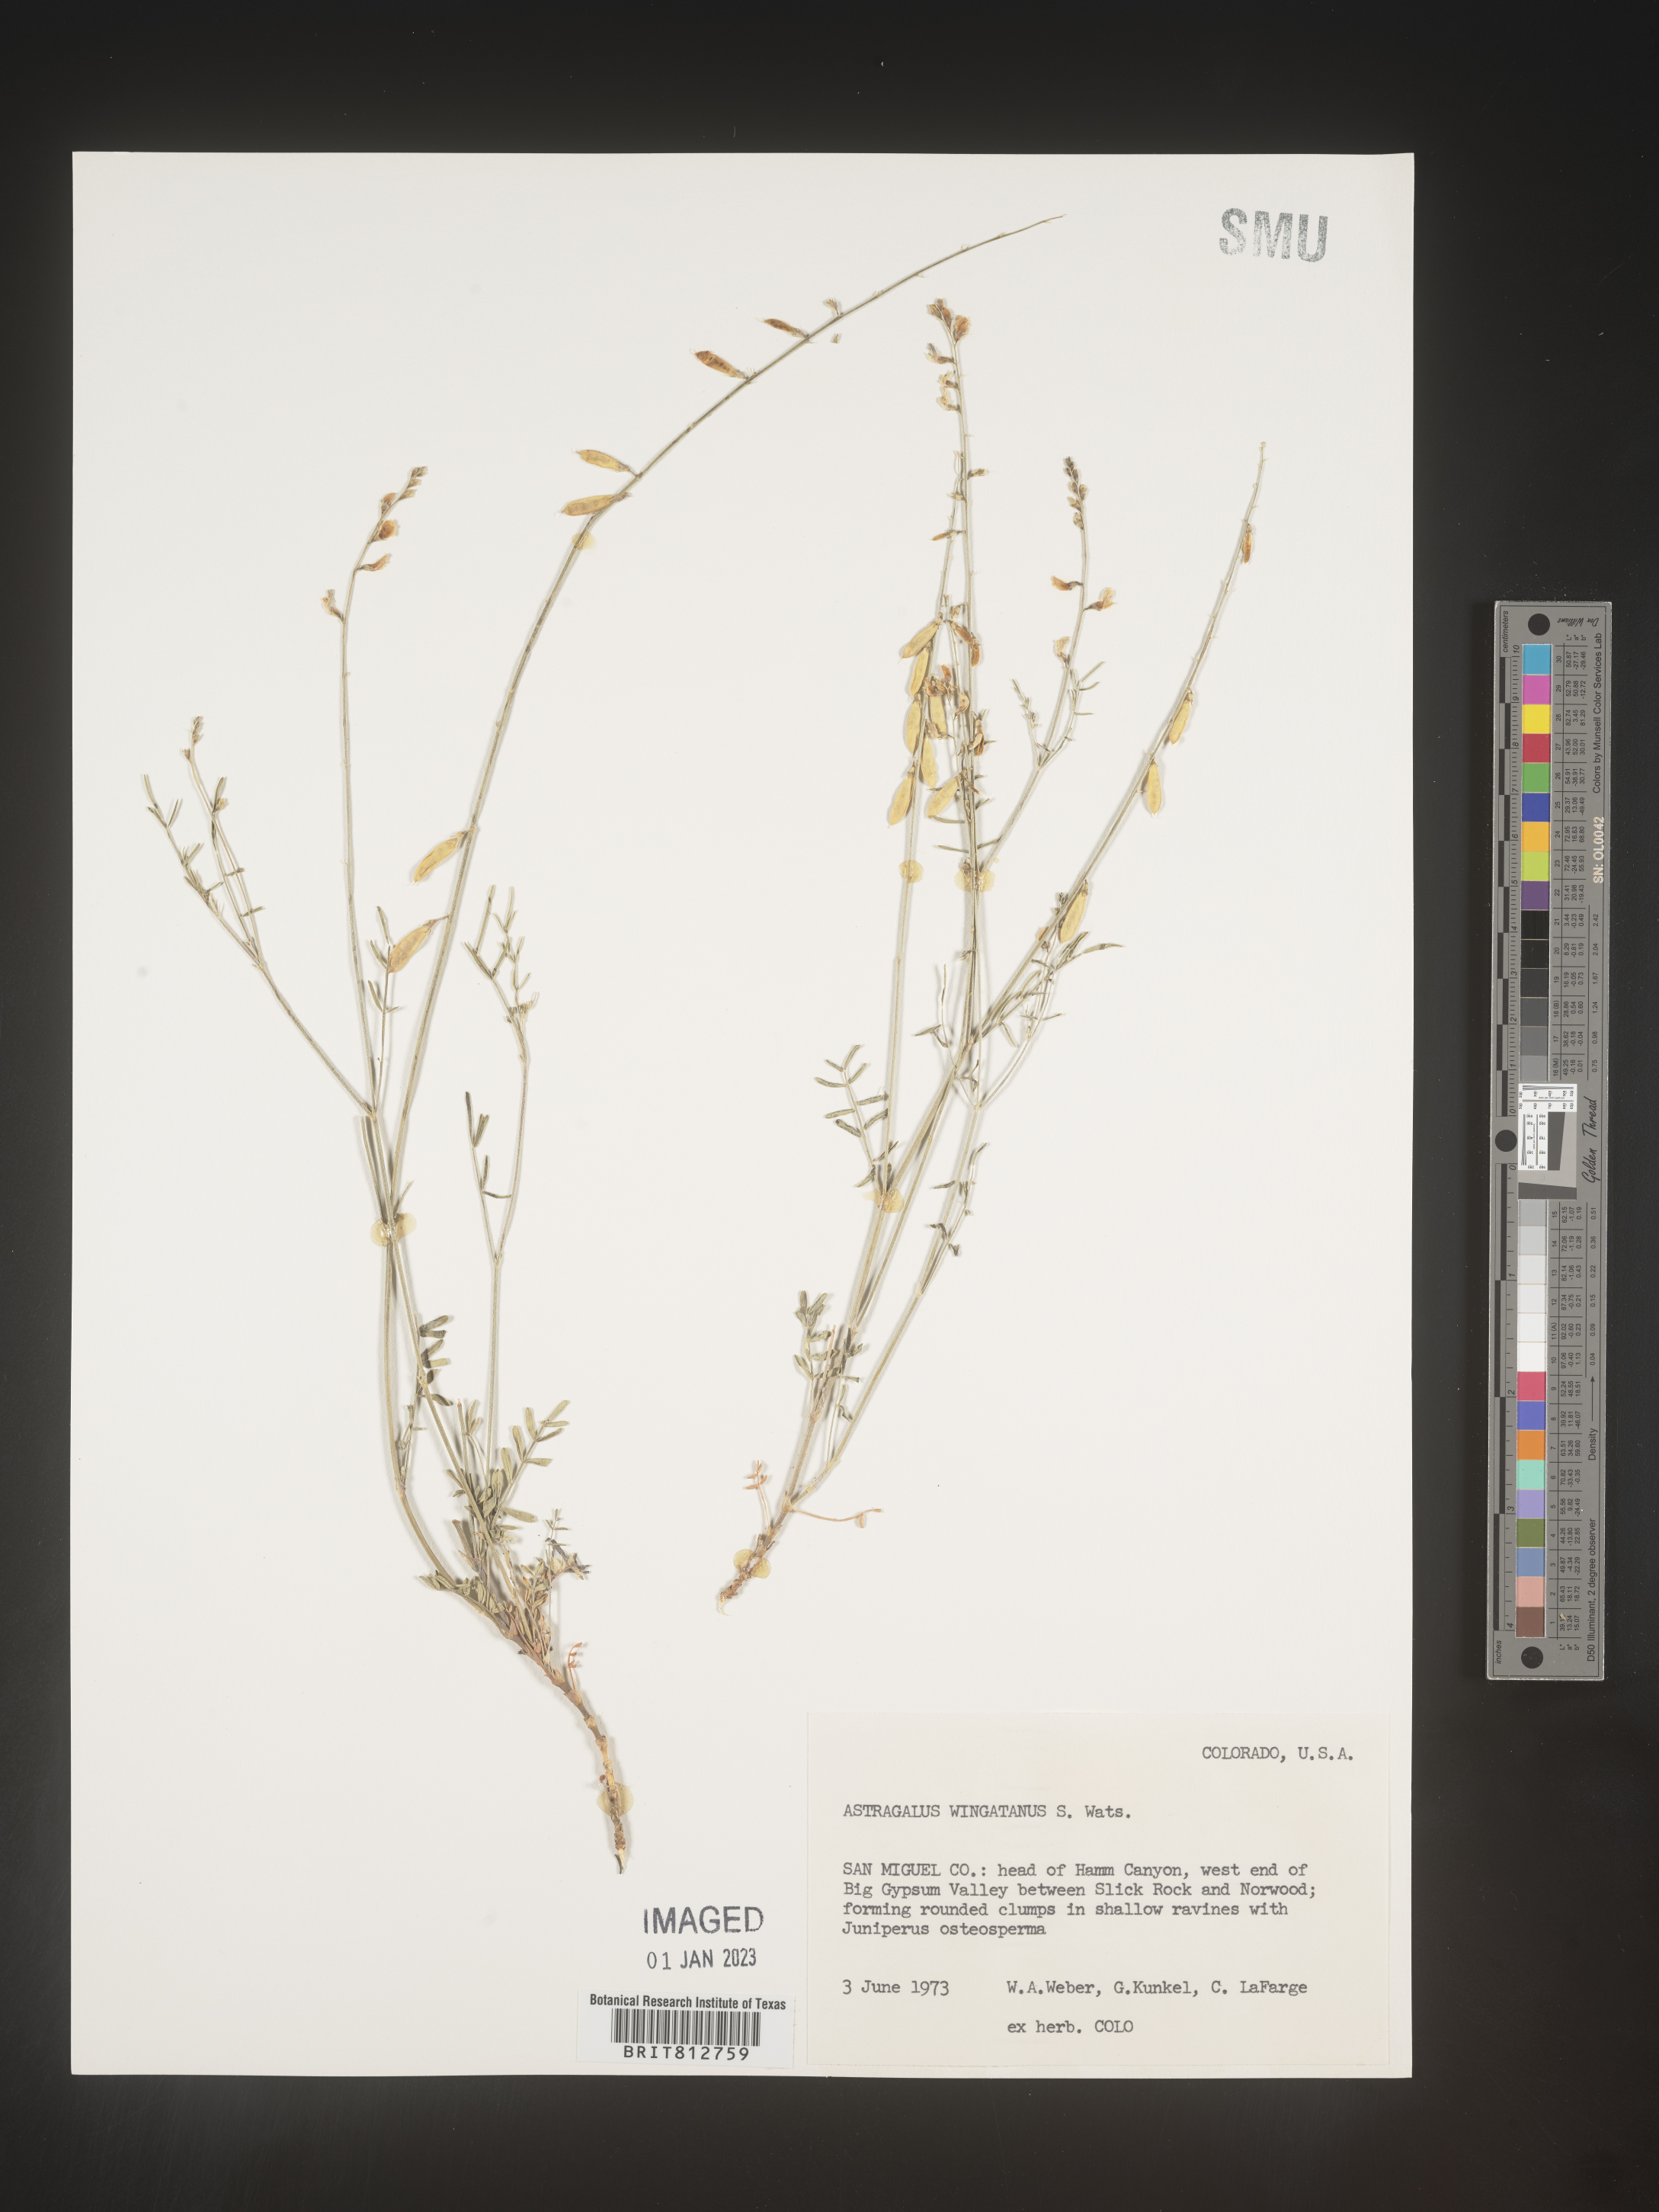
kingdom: Plantae
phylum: Tracheophyta
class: Magnoliopsida
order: Fabales
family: Fabaceae
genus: Astragalus
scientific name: Astragalus
